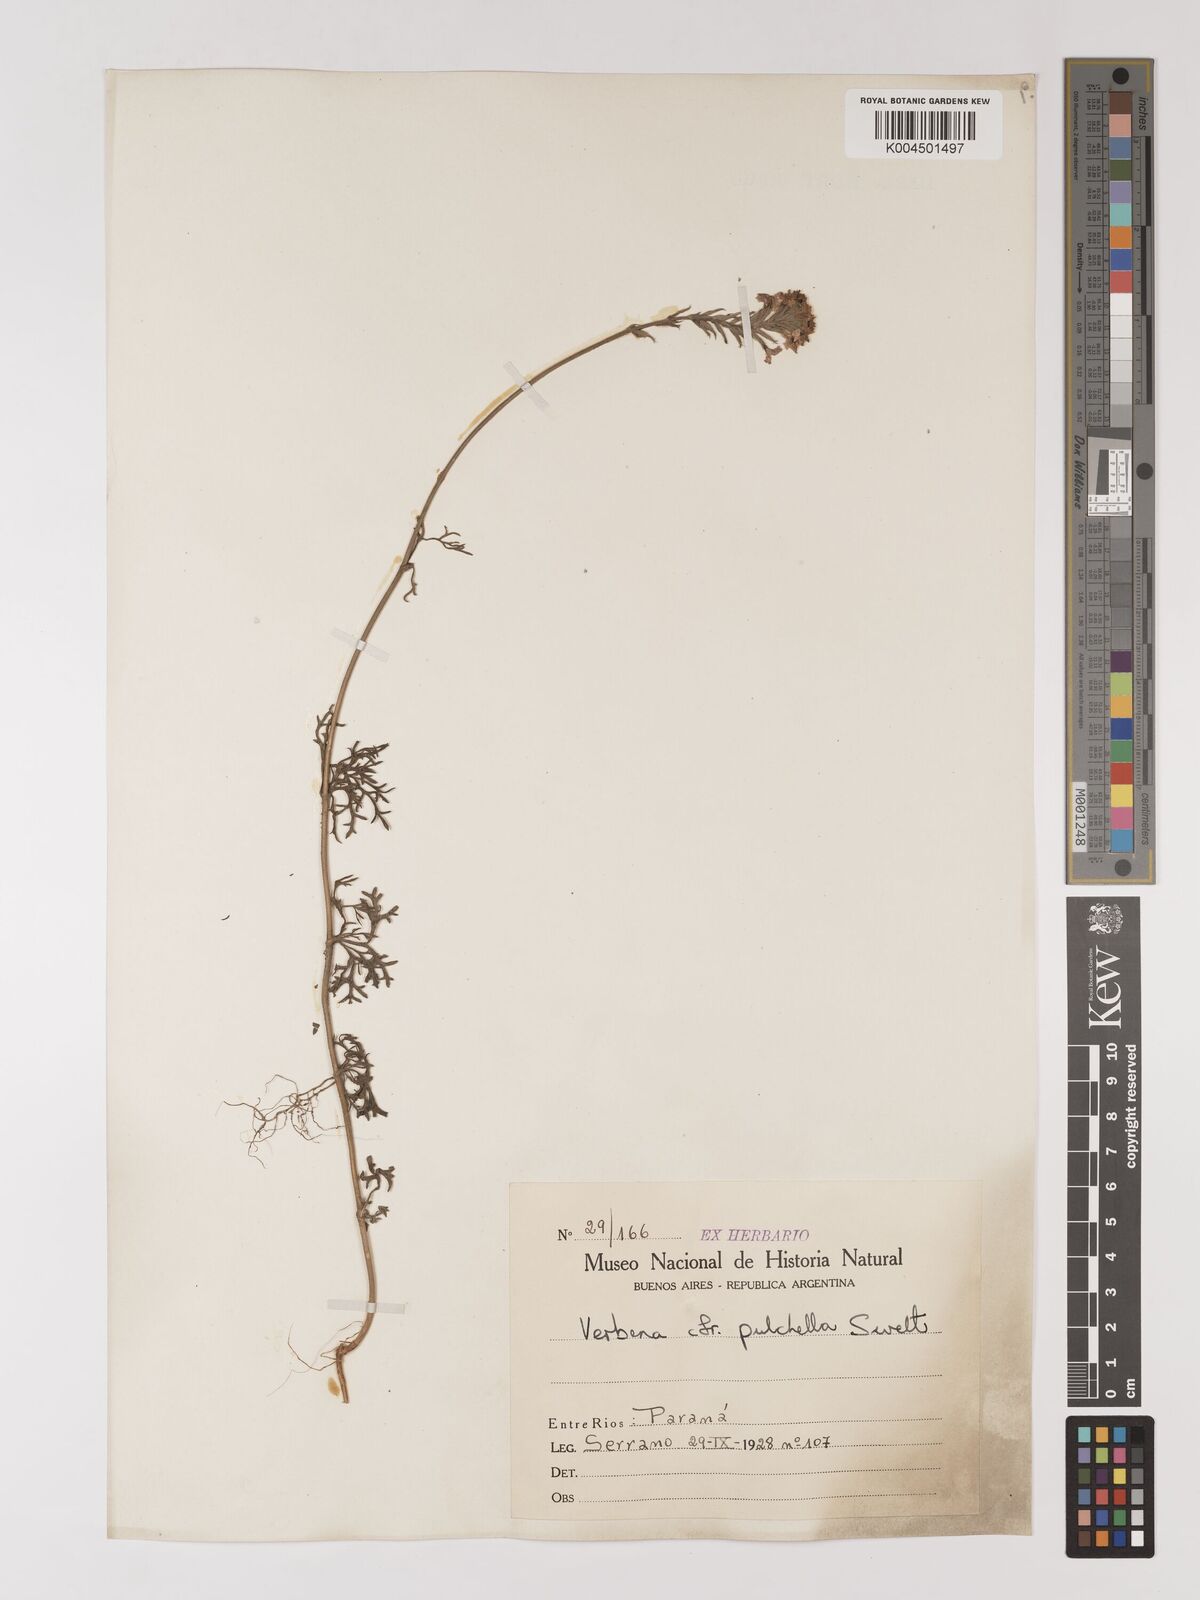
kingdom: Plantae
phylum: Tracheophyta
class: Magnoliopsida
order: Lamiales
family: Verbenaceae
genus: Verbena
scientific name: Verbena tenera
